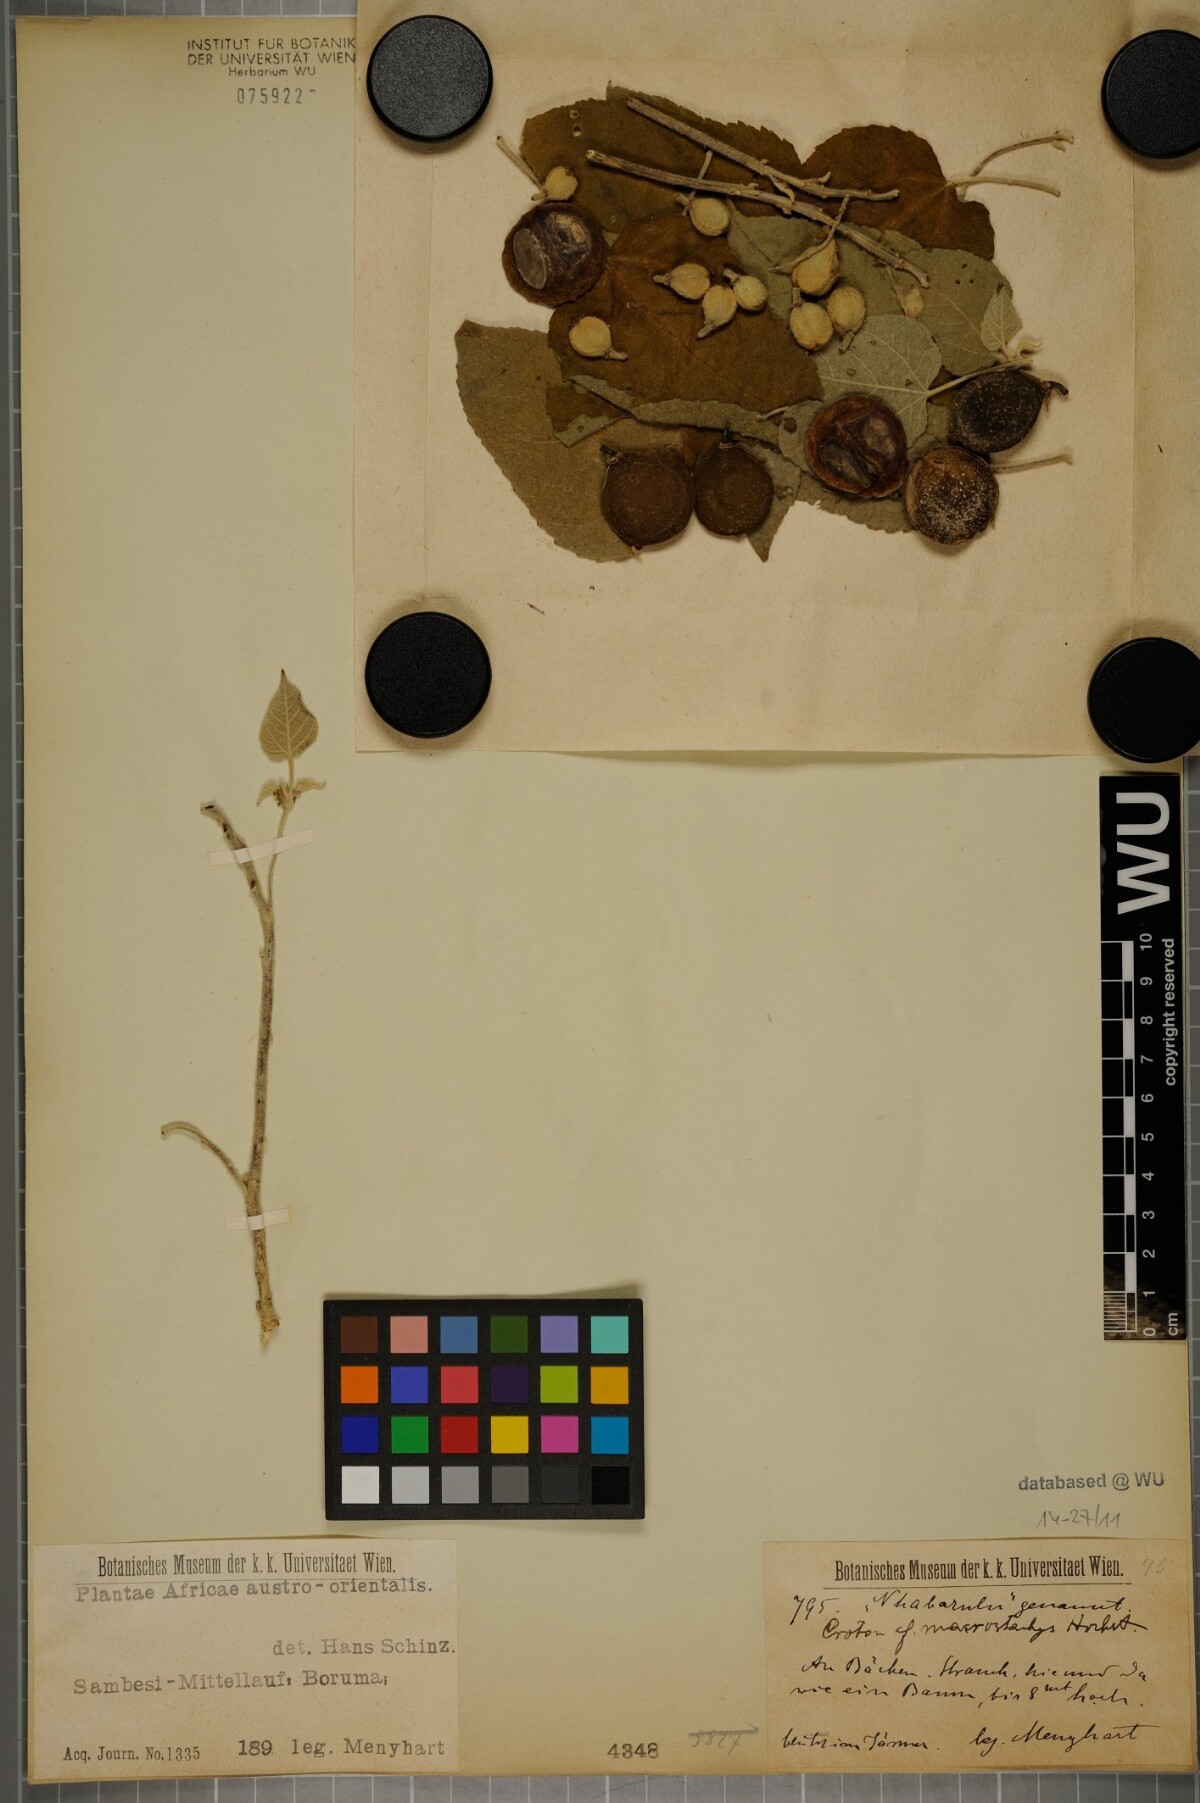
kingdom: Plantae
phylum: Tracheophyta
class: Magnoliopsida
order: Malpighiales
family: Euphorbiaceae
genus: Croton
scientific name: Croton macrostachys
